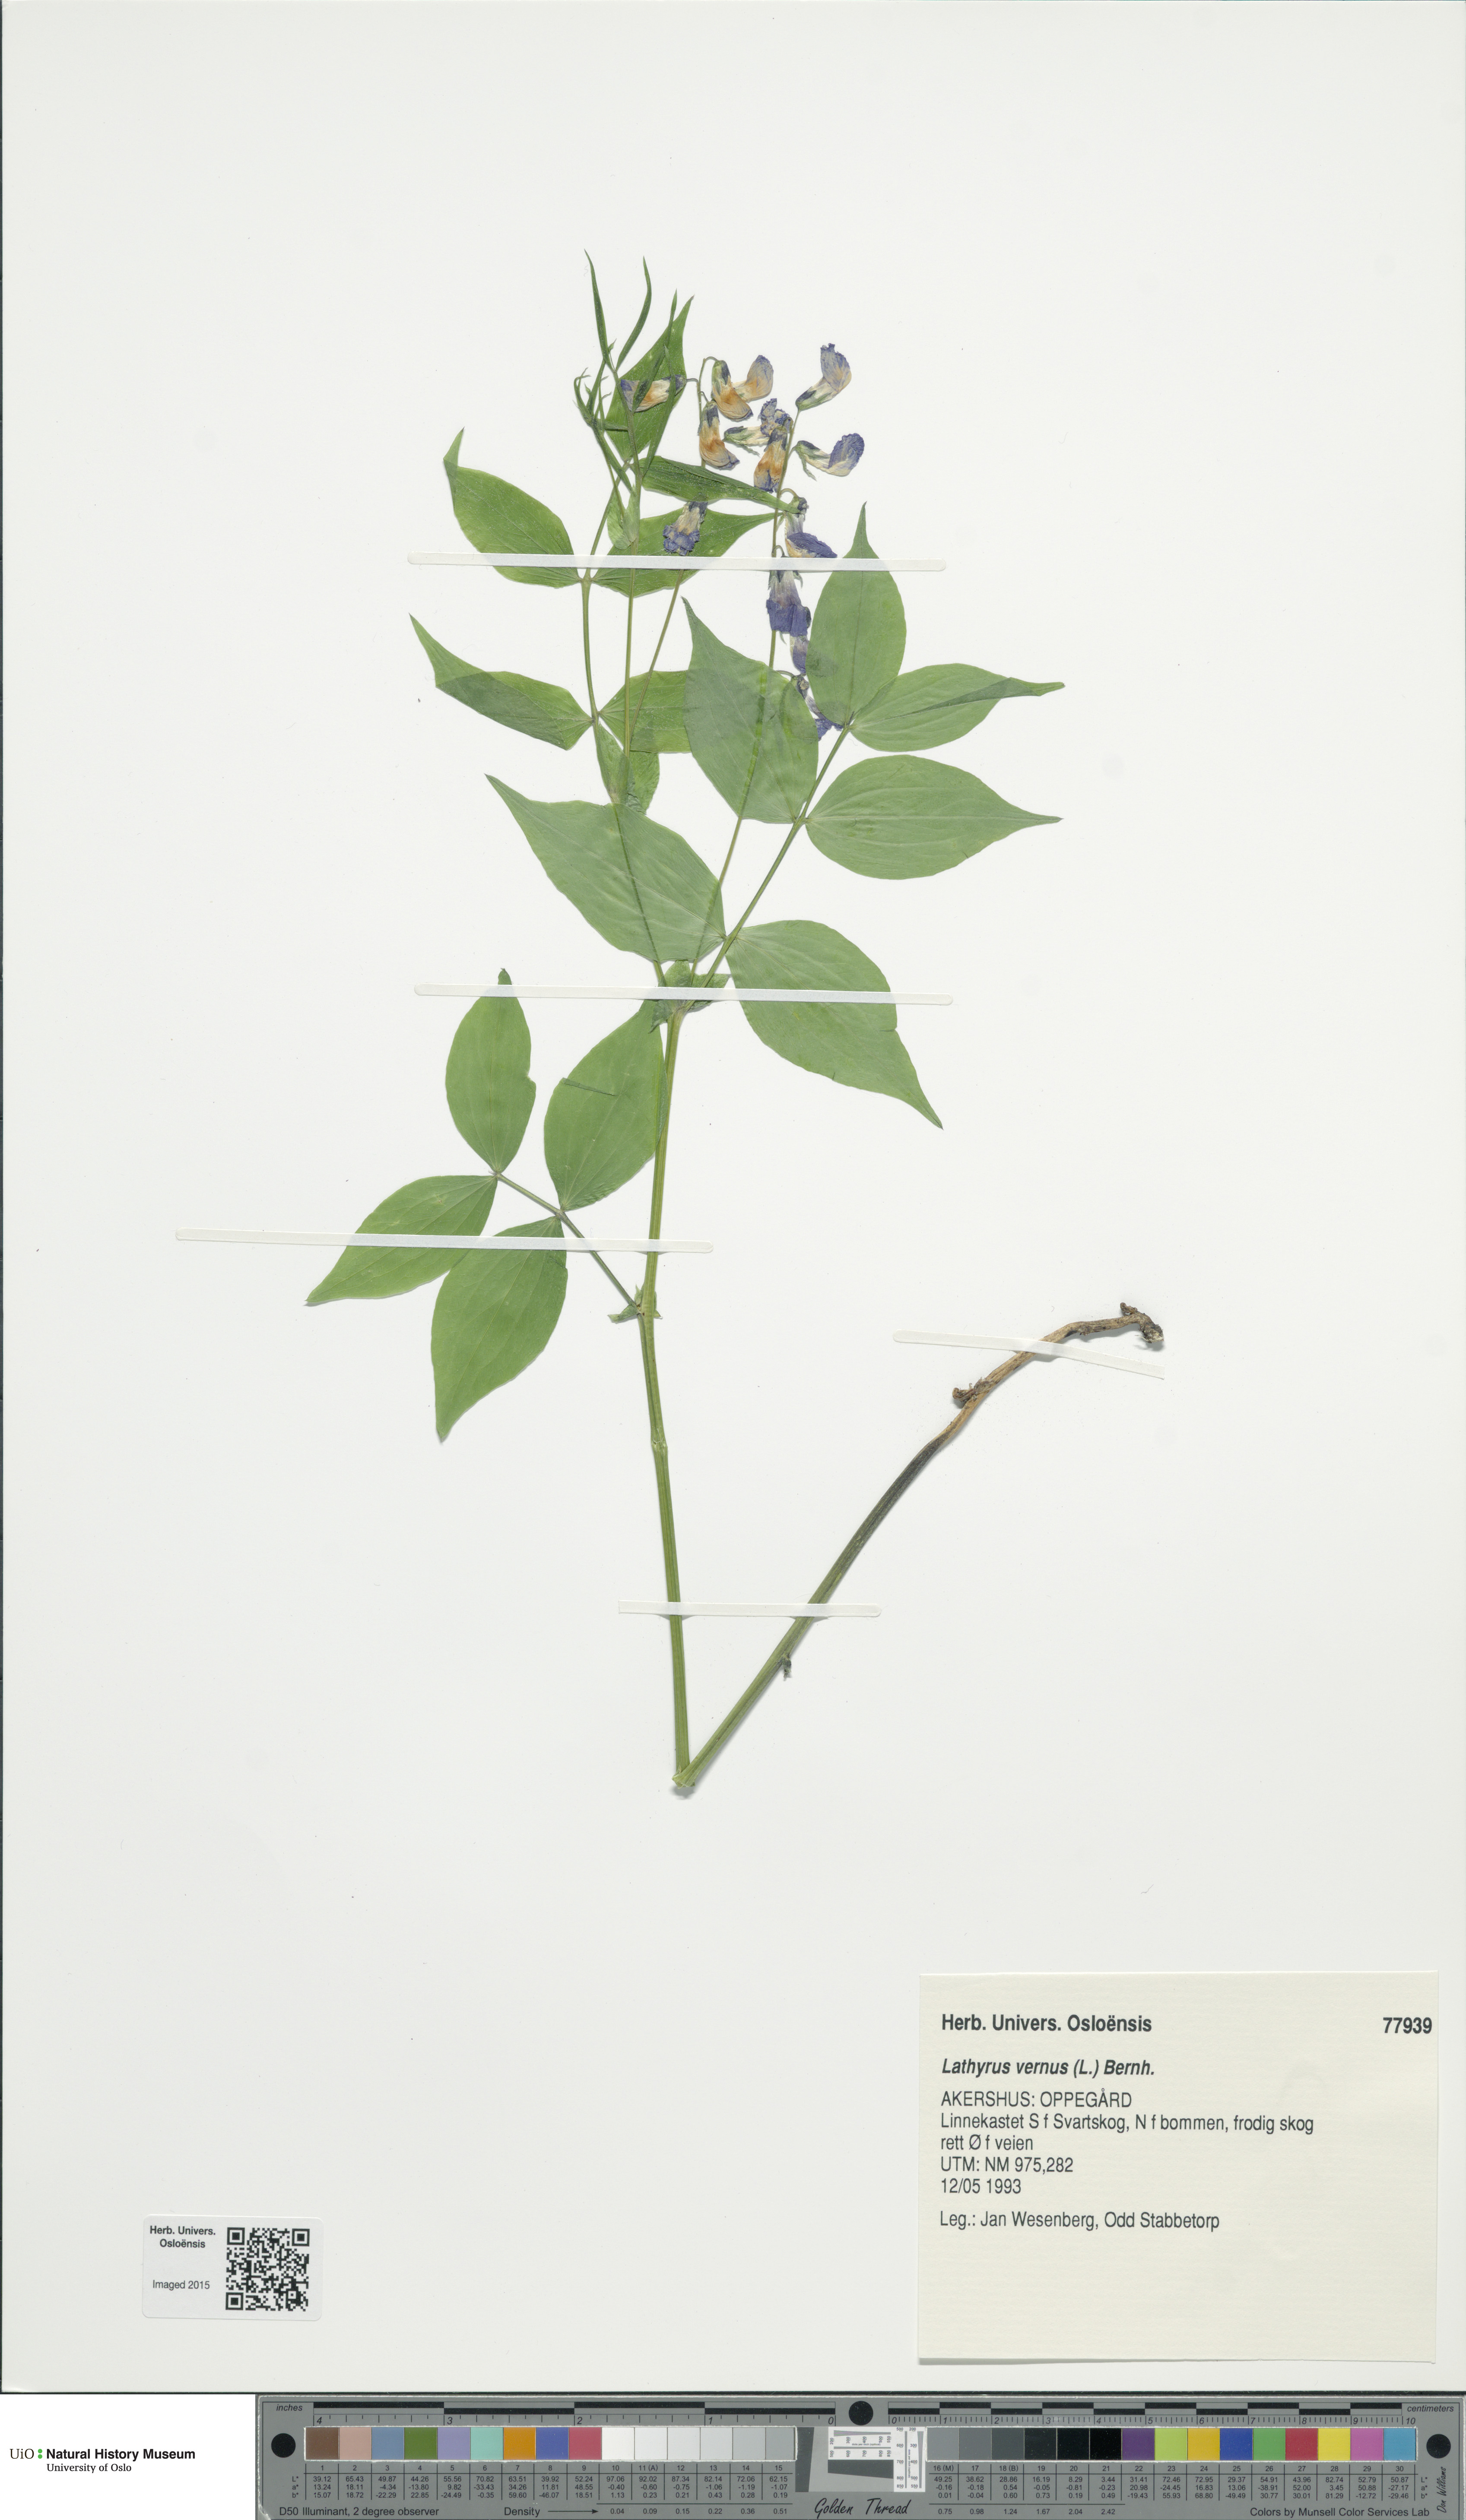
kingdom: Plantae
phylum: Tracheophyta
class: Magnoliopsida
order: Fabales
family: Fabaceae
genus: Lathyrus
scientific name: Lathyrus vernus
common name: Spring pea
